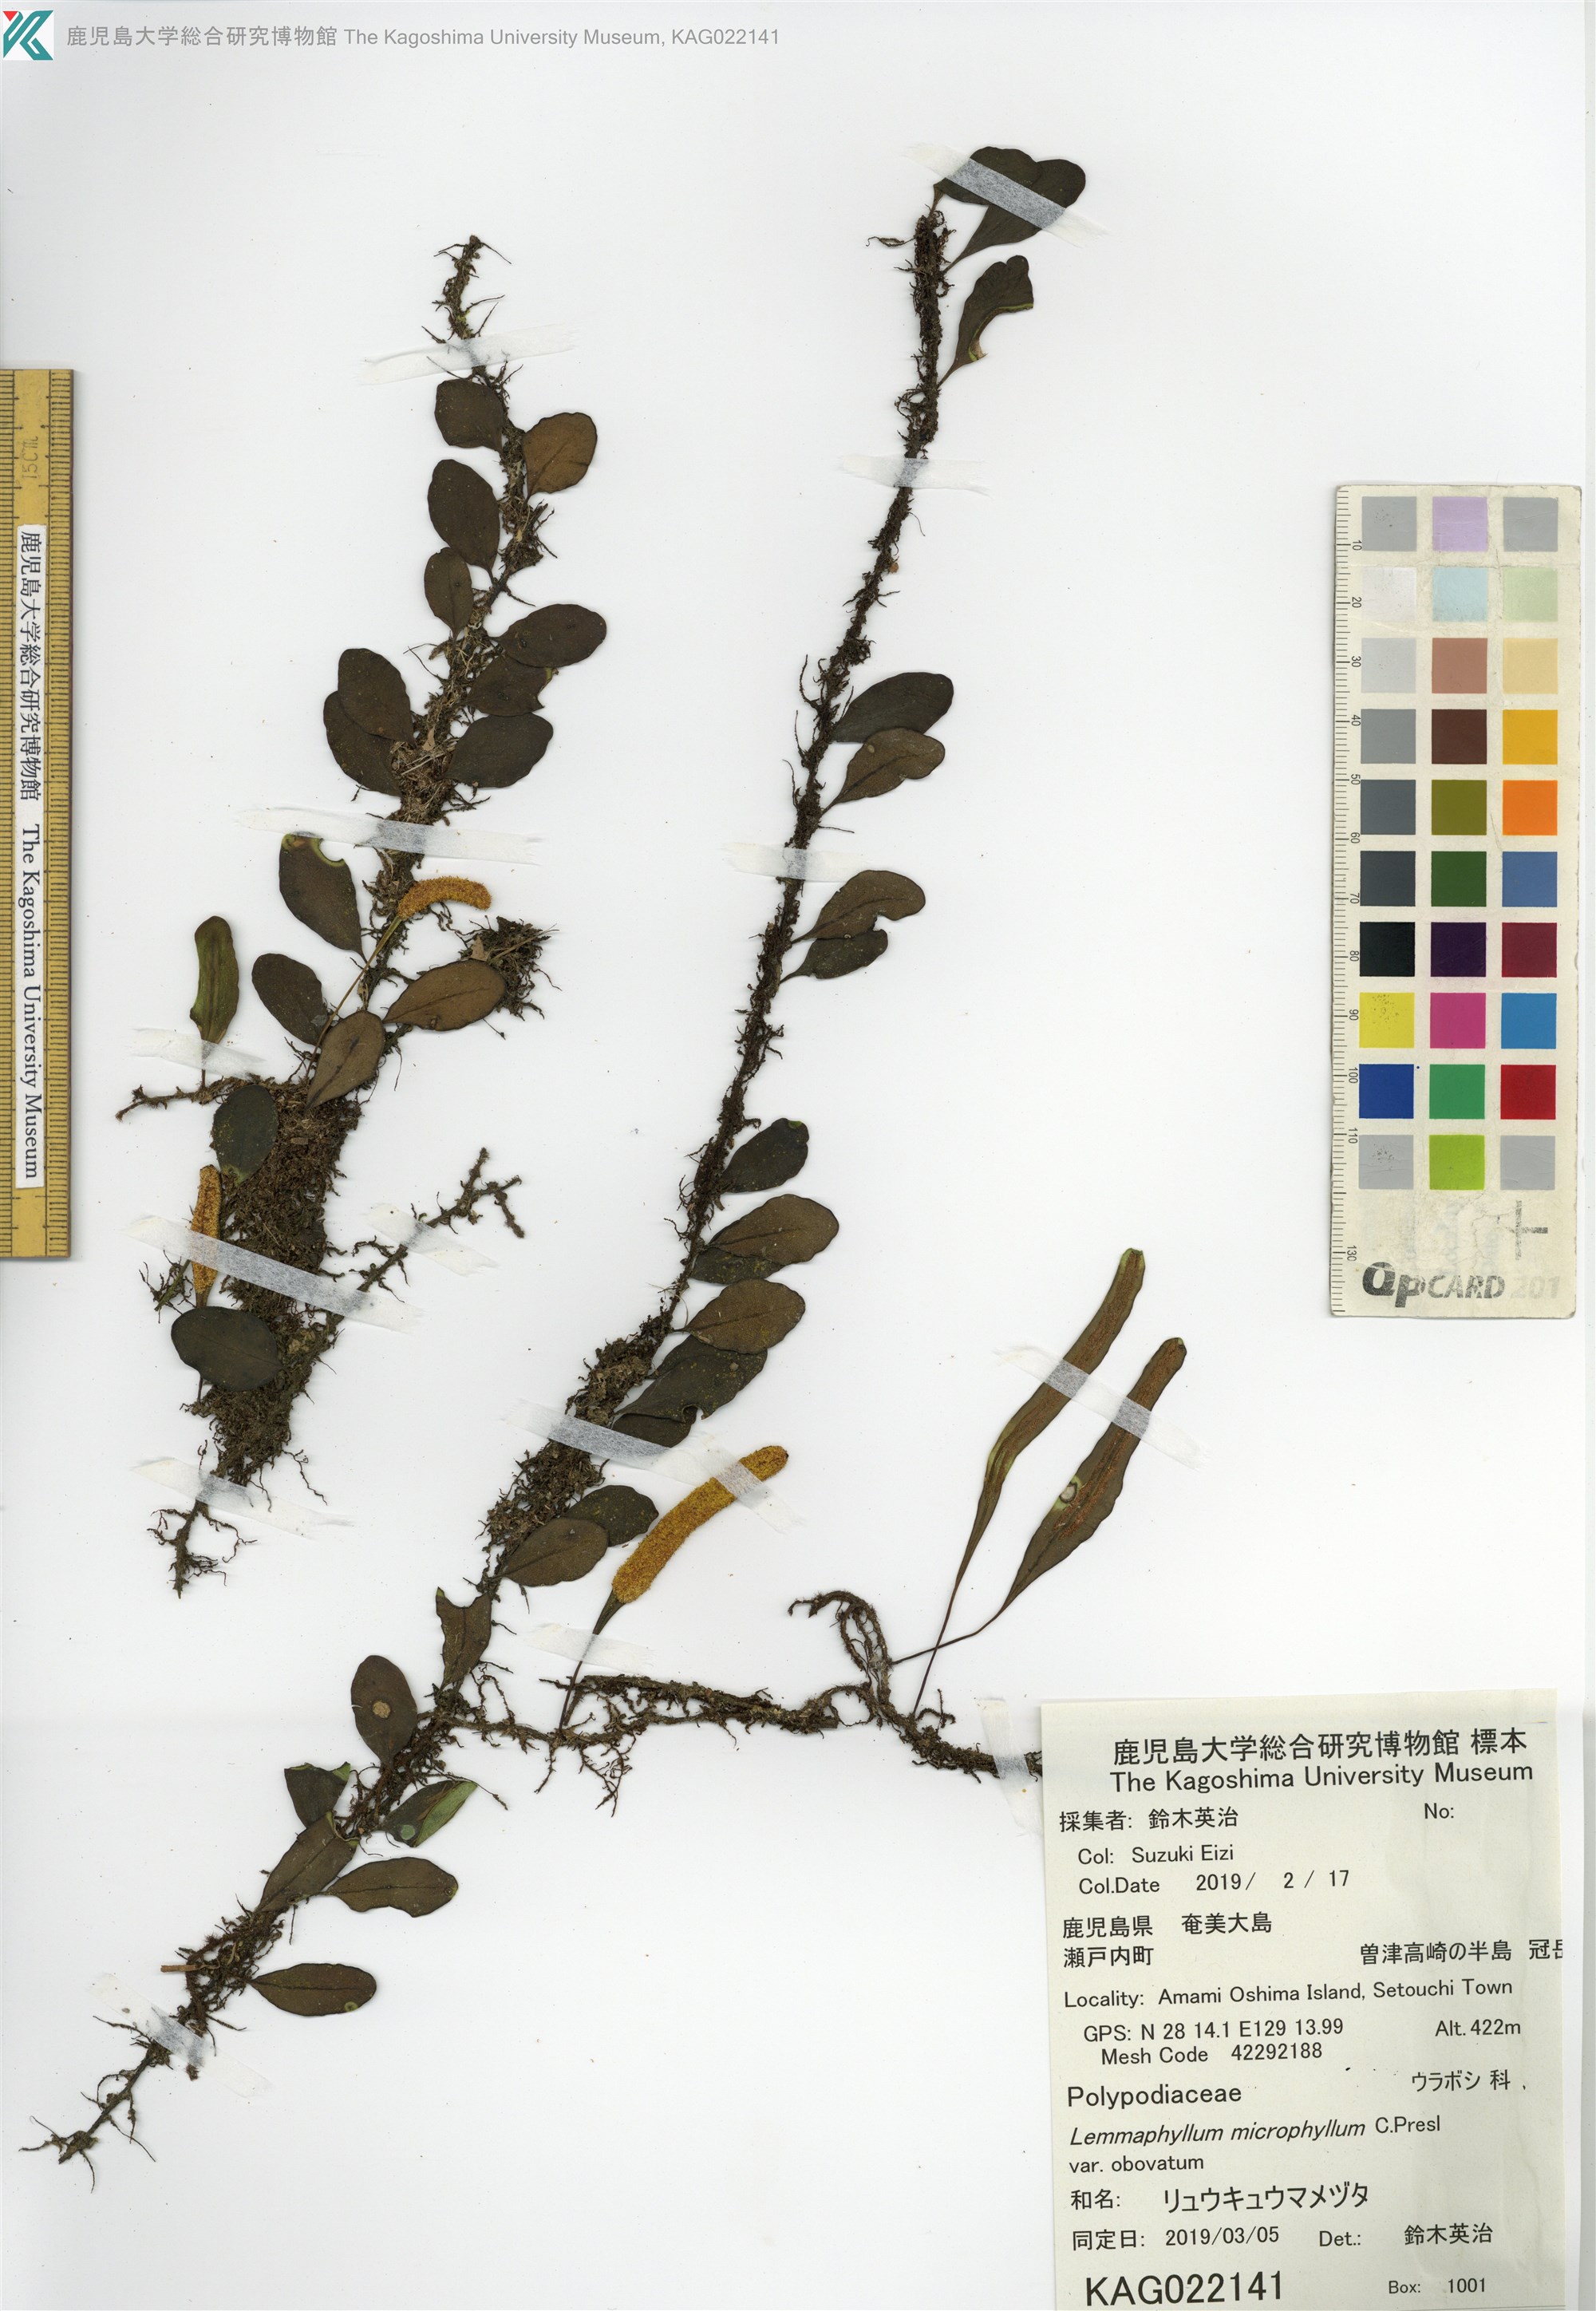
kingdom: Plantae
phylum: Tracheophyta
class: Polypodiopsida
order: Polypodiales
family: Polypodiaceae
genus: Lepisorus
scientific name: Lepisorus microphyllus
